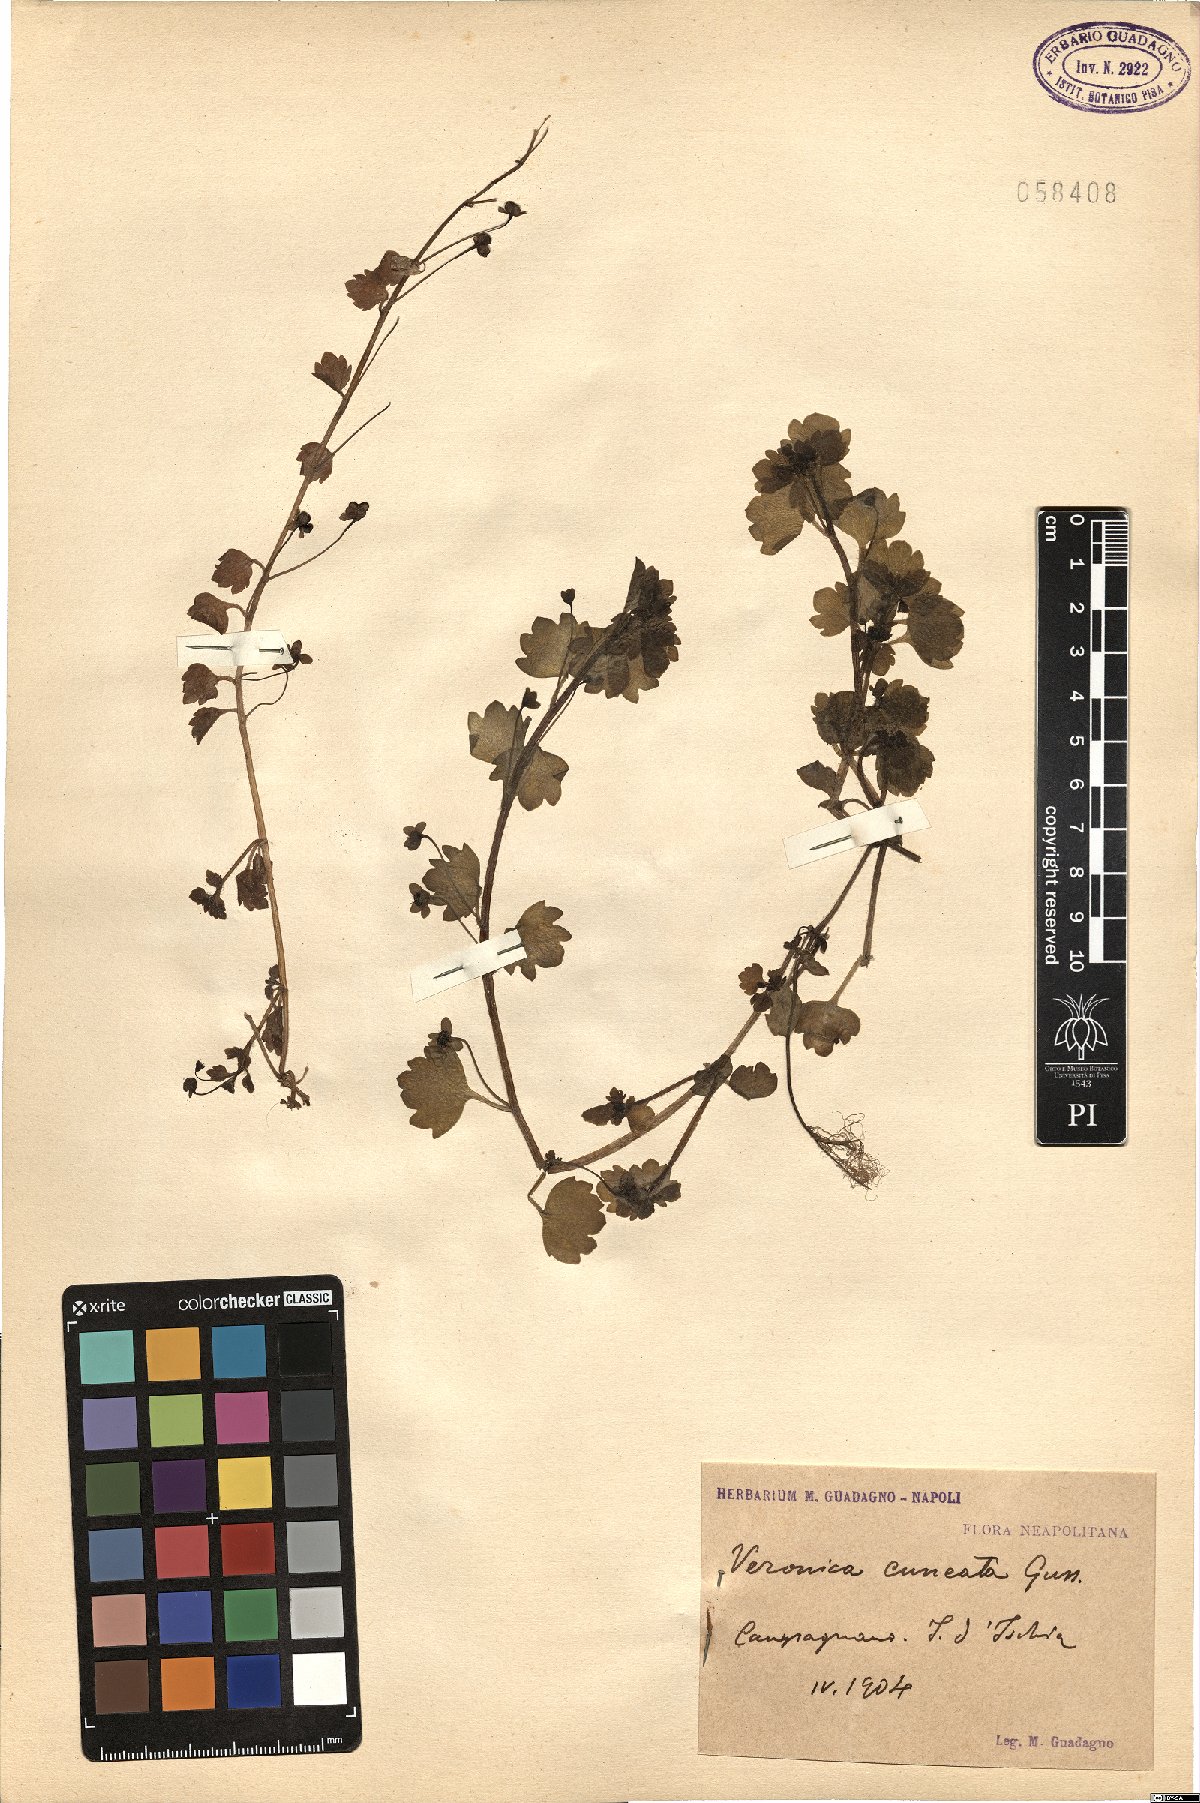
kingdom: Plantae
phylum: Tracheophyta
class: Magnoliopsida
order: Lamiales
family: Plantaginaceae
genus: Veronica
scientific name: Veronica cymbalaria
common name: Pale speedwell
